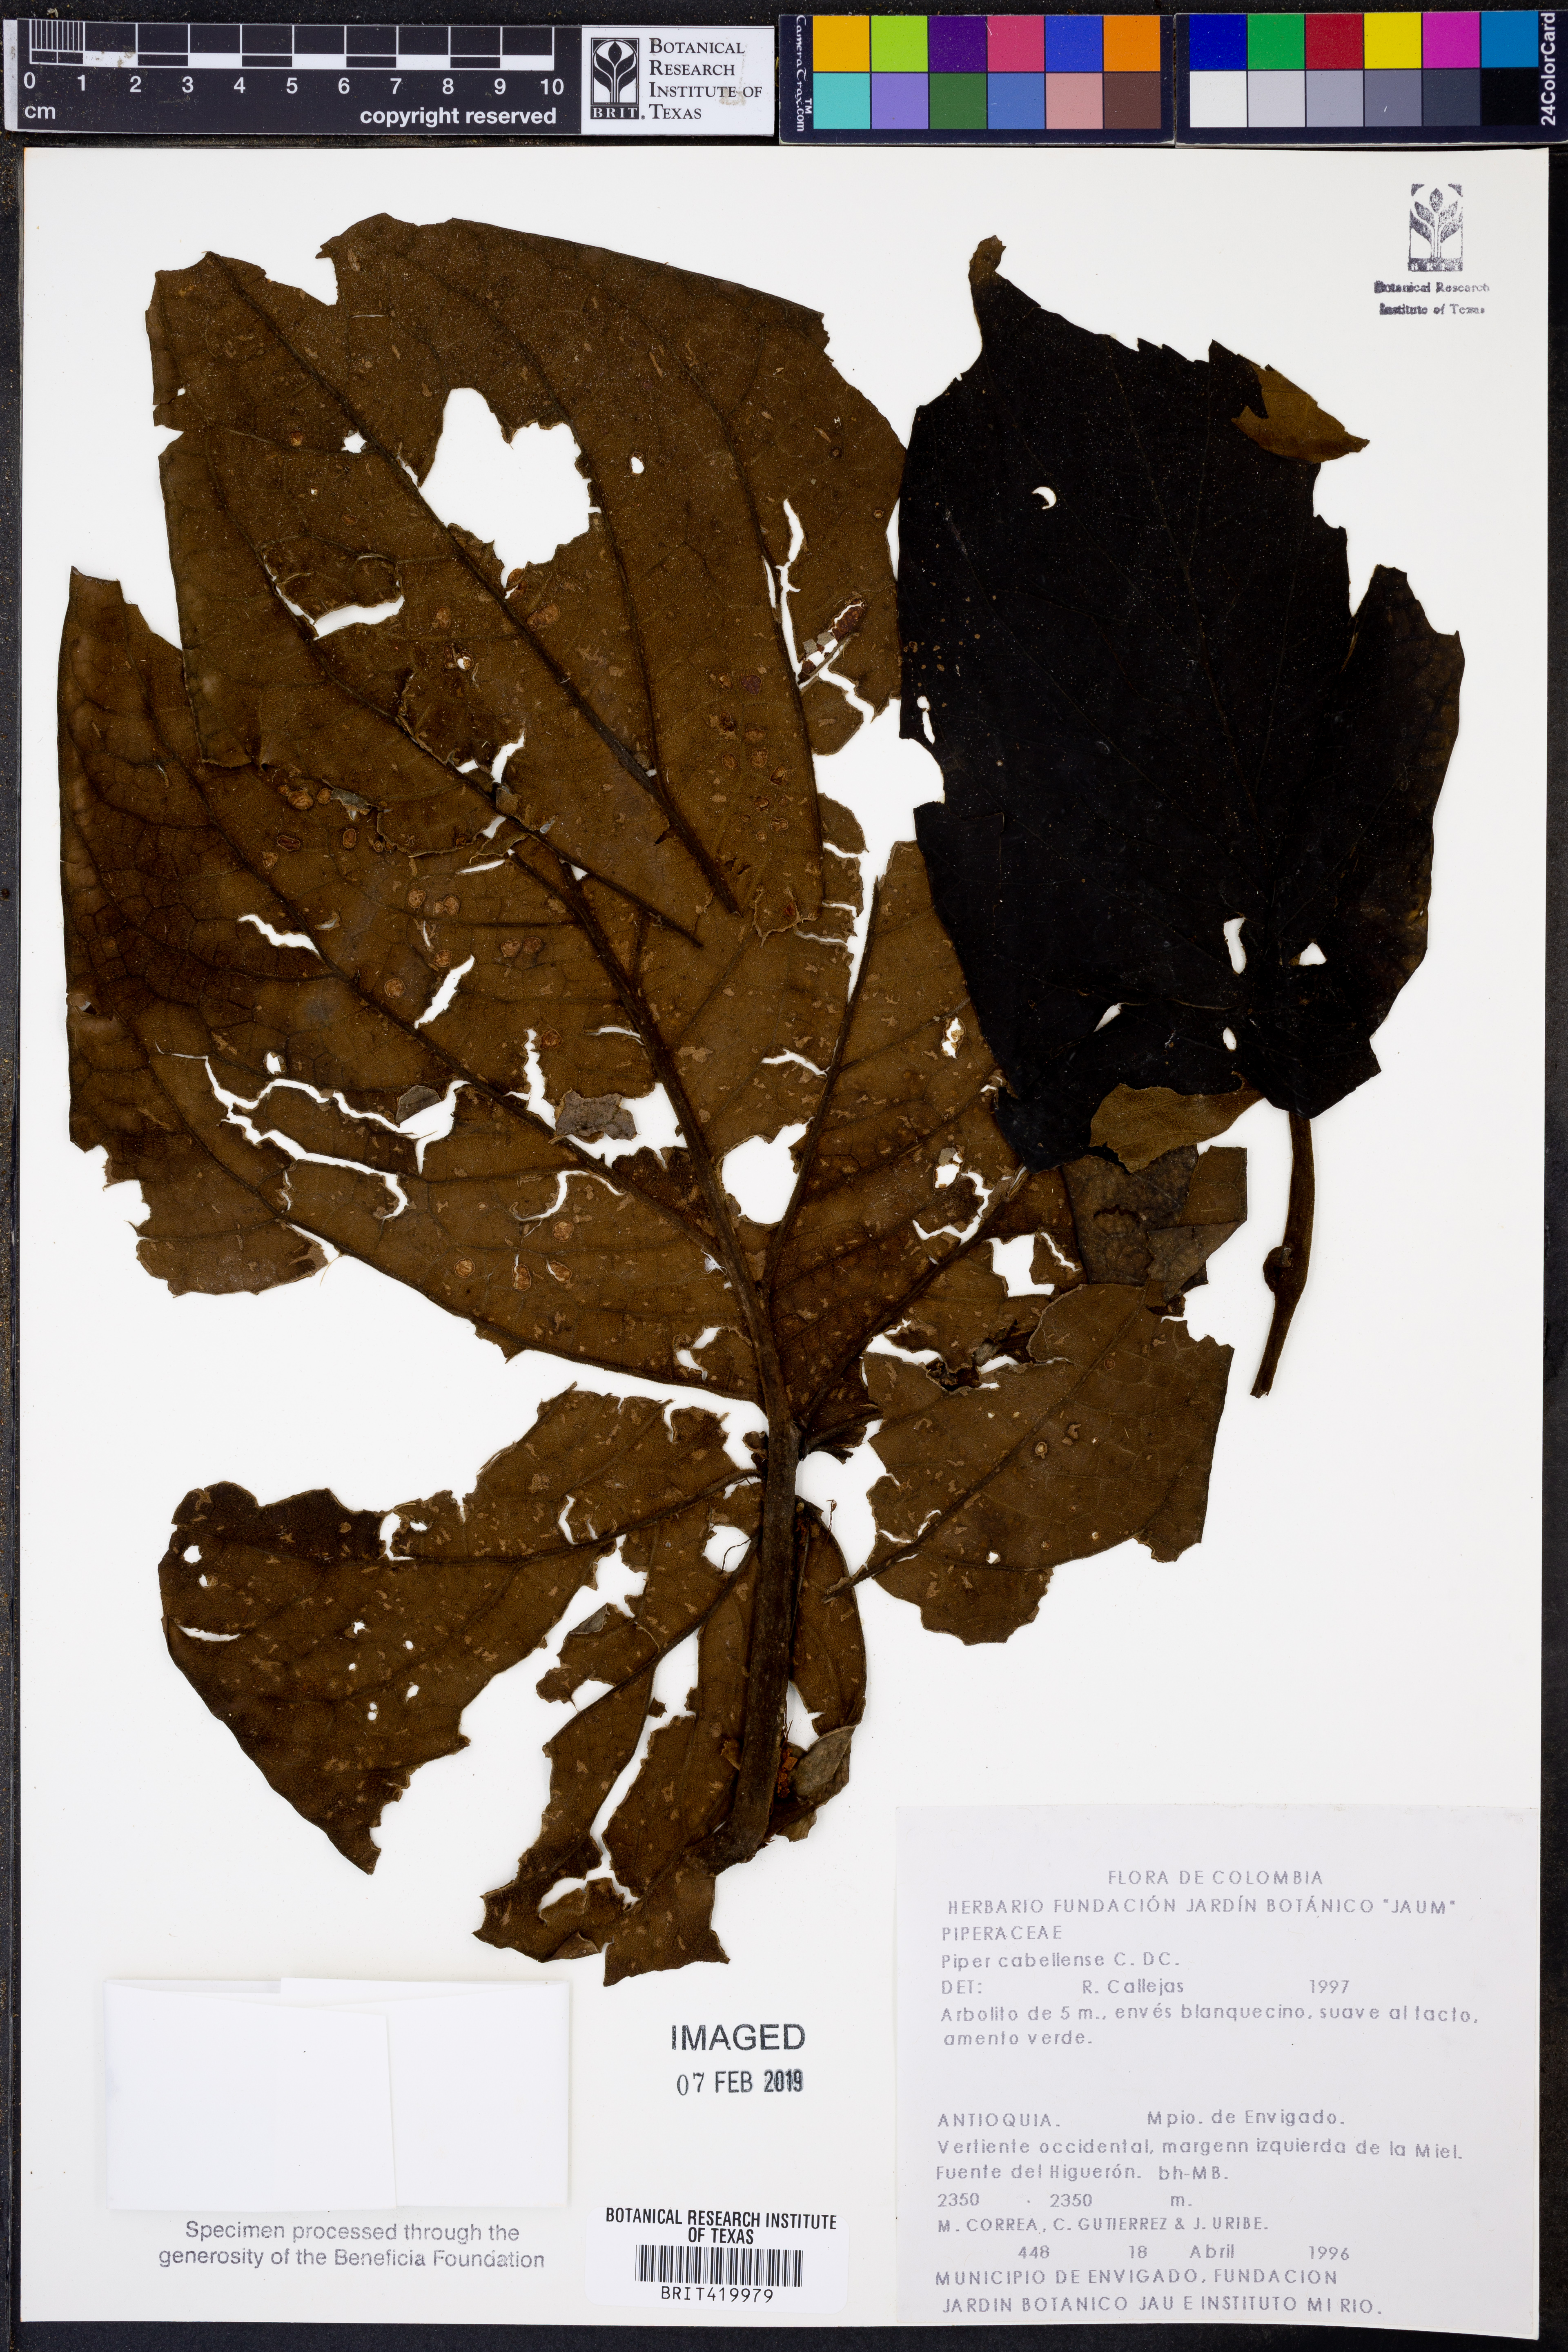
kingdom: Plantae
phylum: Tracheophyta
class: Magnoliopsida
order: Piperales
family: Piperaceae
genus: Piper
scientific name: Piper cernuum
